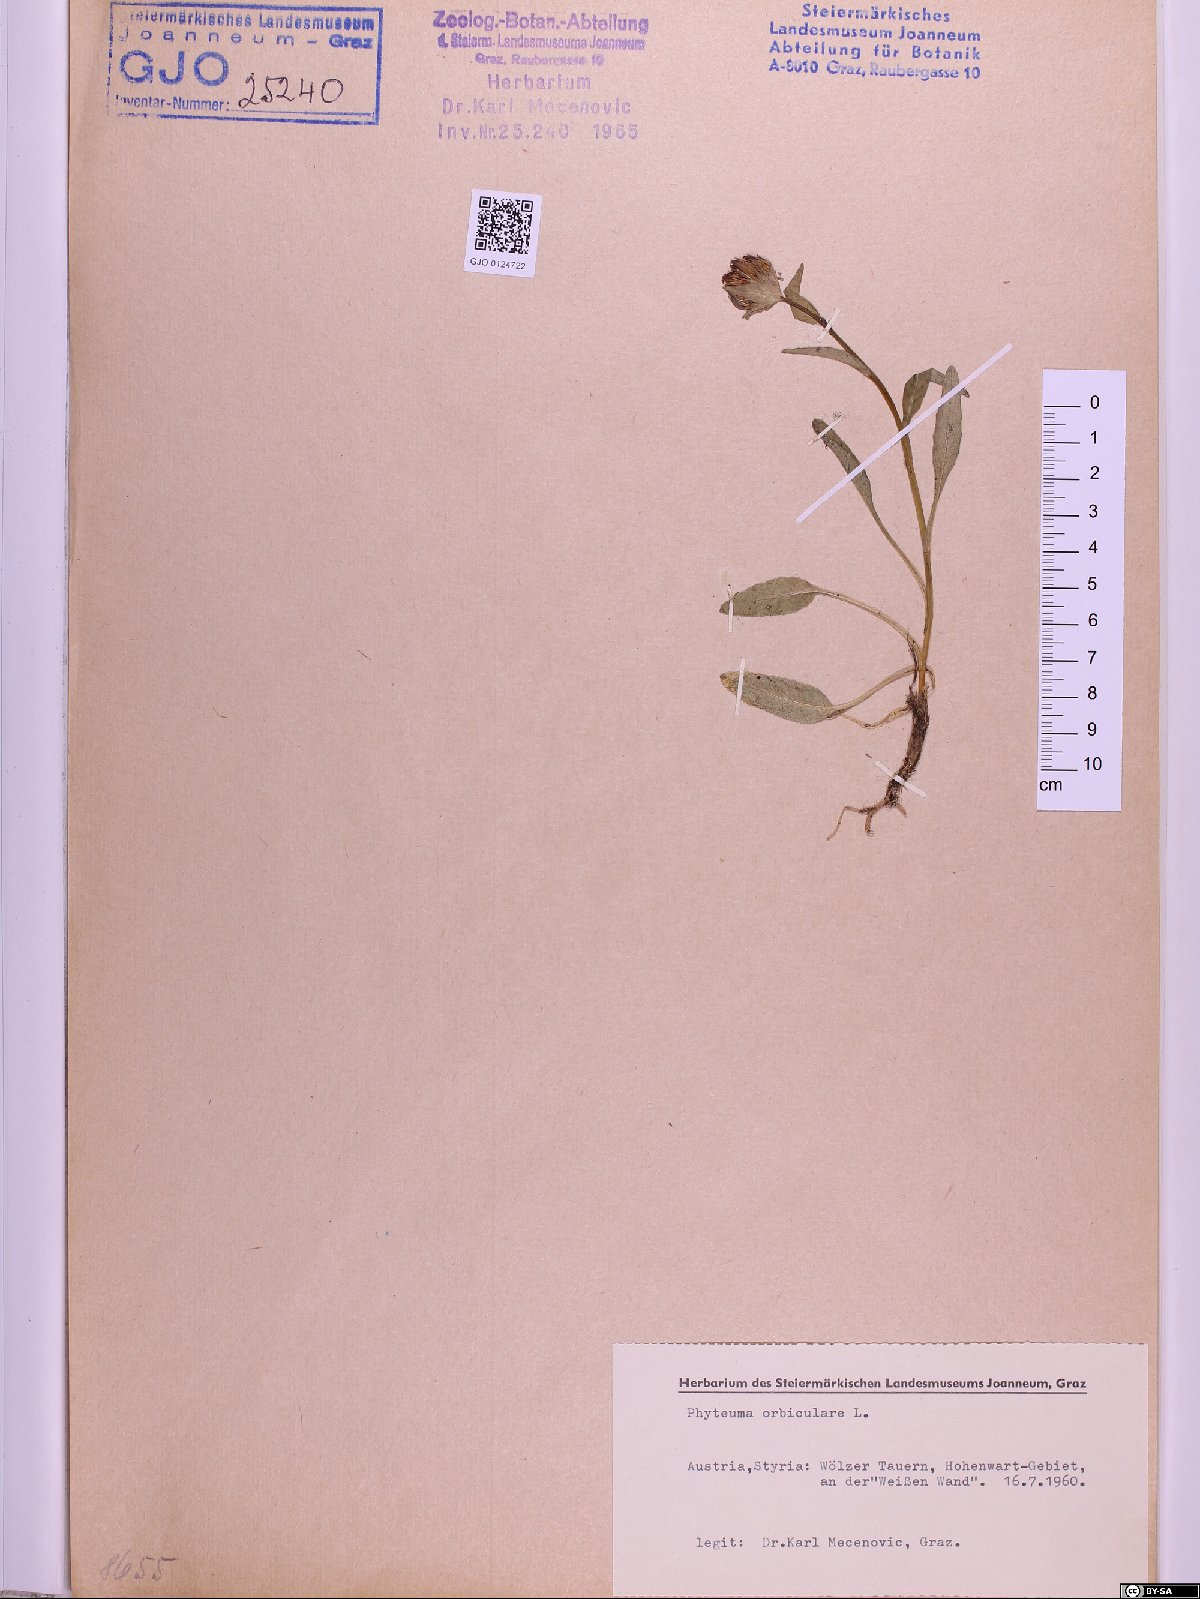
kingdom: Plantae
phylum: Tracheophyta
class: Magnoliopsida
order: Asterales
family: Campanulaceae
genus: Phyteuma
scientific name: Phyteuma orbiculare
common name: Round-headed rampion
